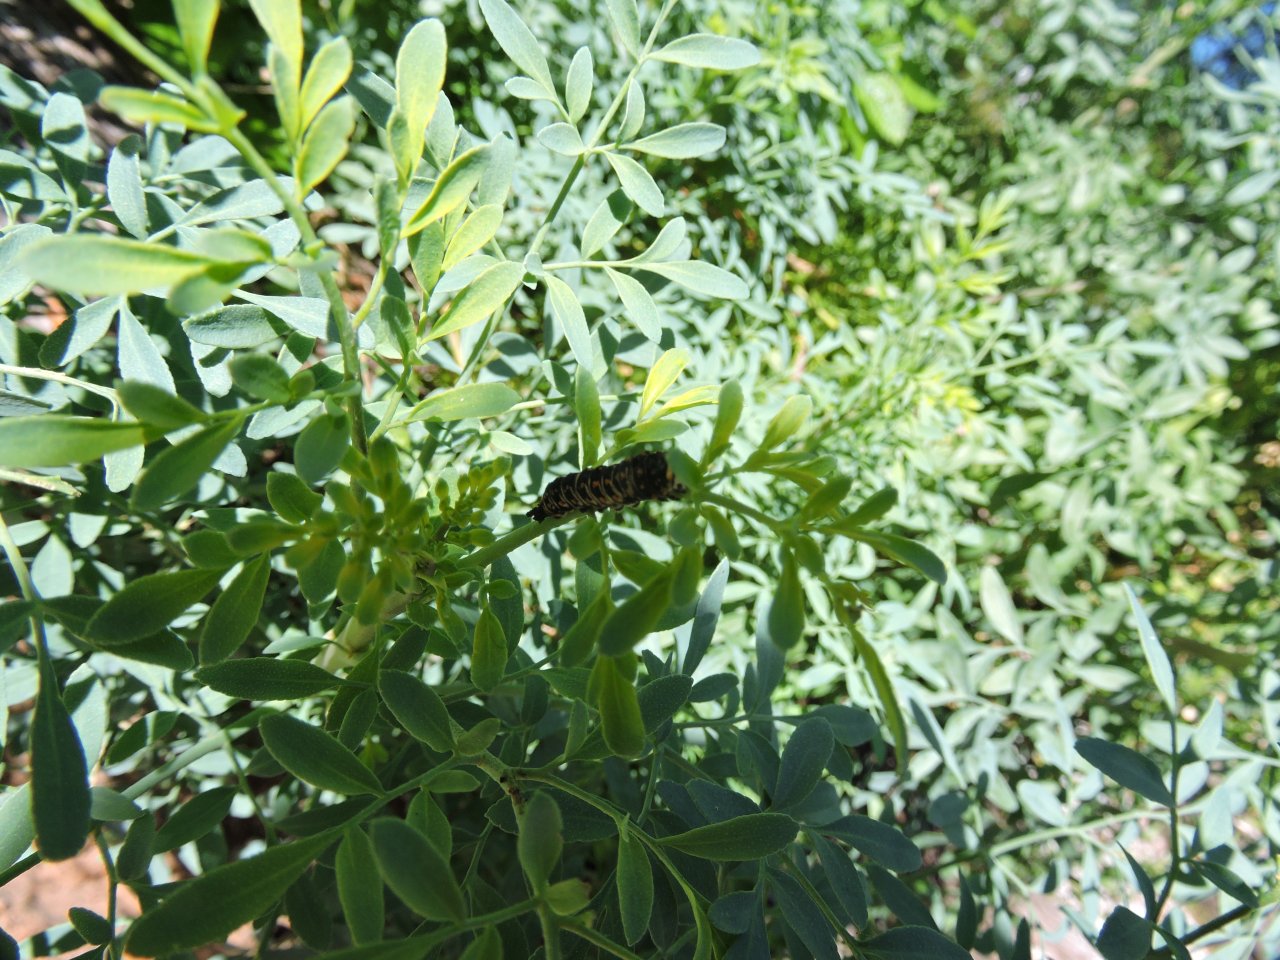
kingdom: Animalia
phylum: Arthropoda
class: Insecta
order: Lepidoptera
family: Papilionidae
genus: Papilio
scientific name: Papilio polyxenes
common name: Black Swallowtail
